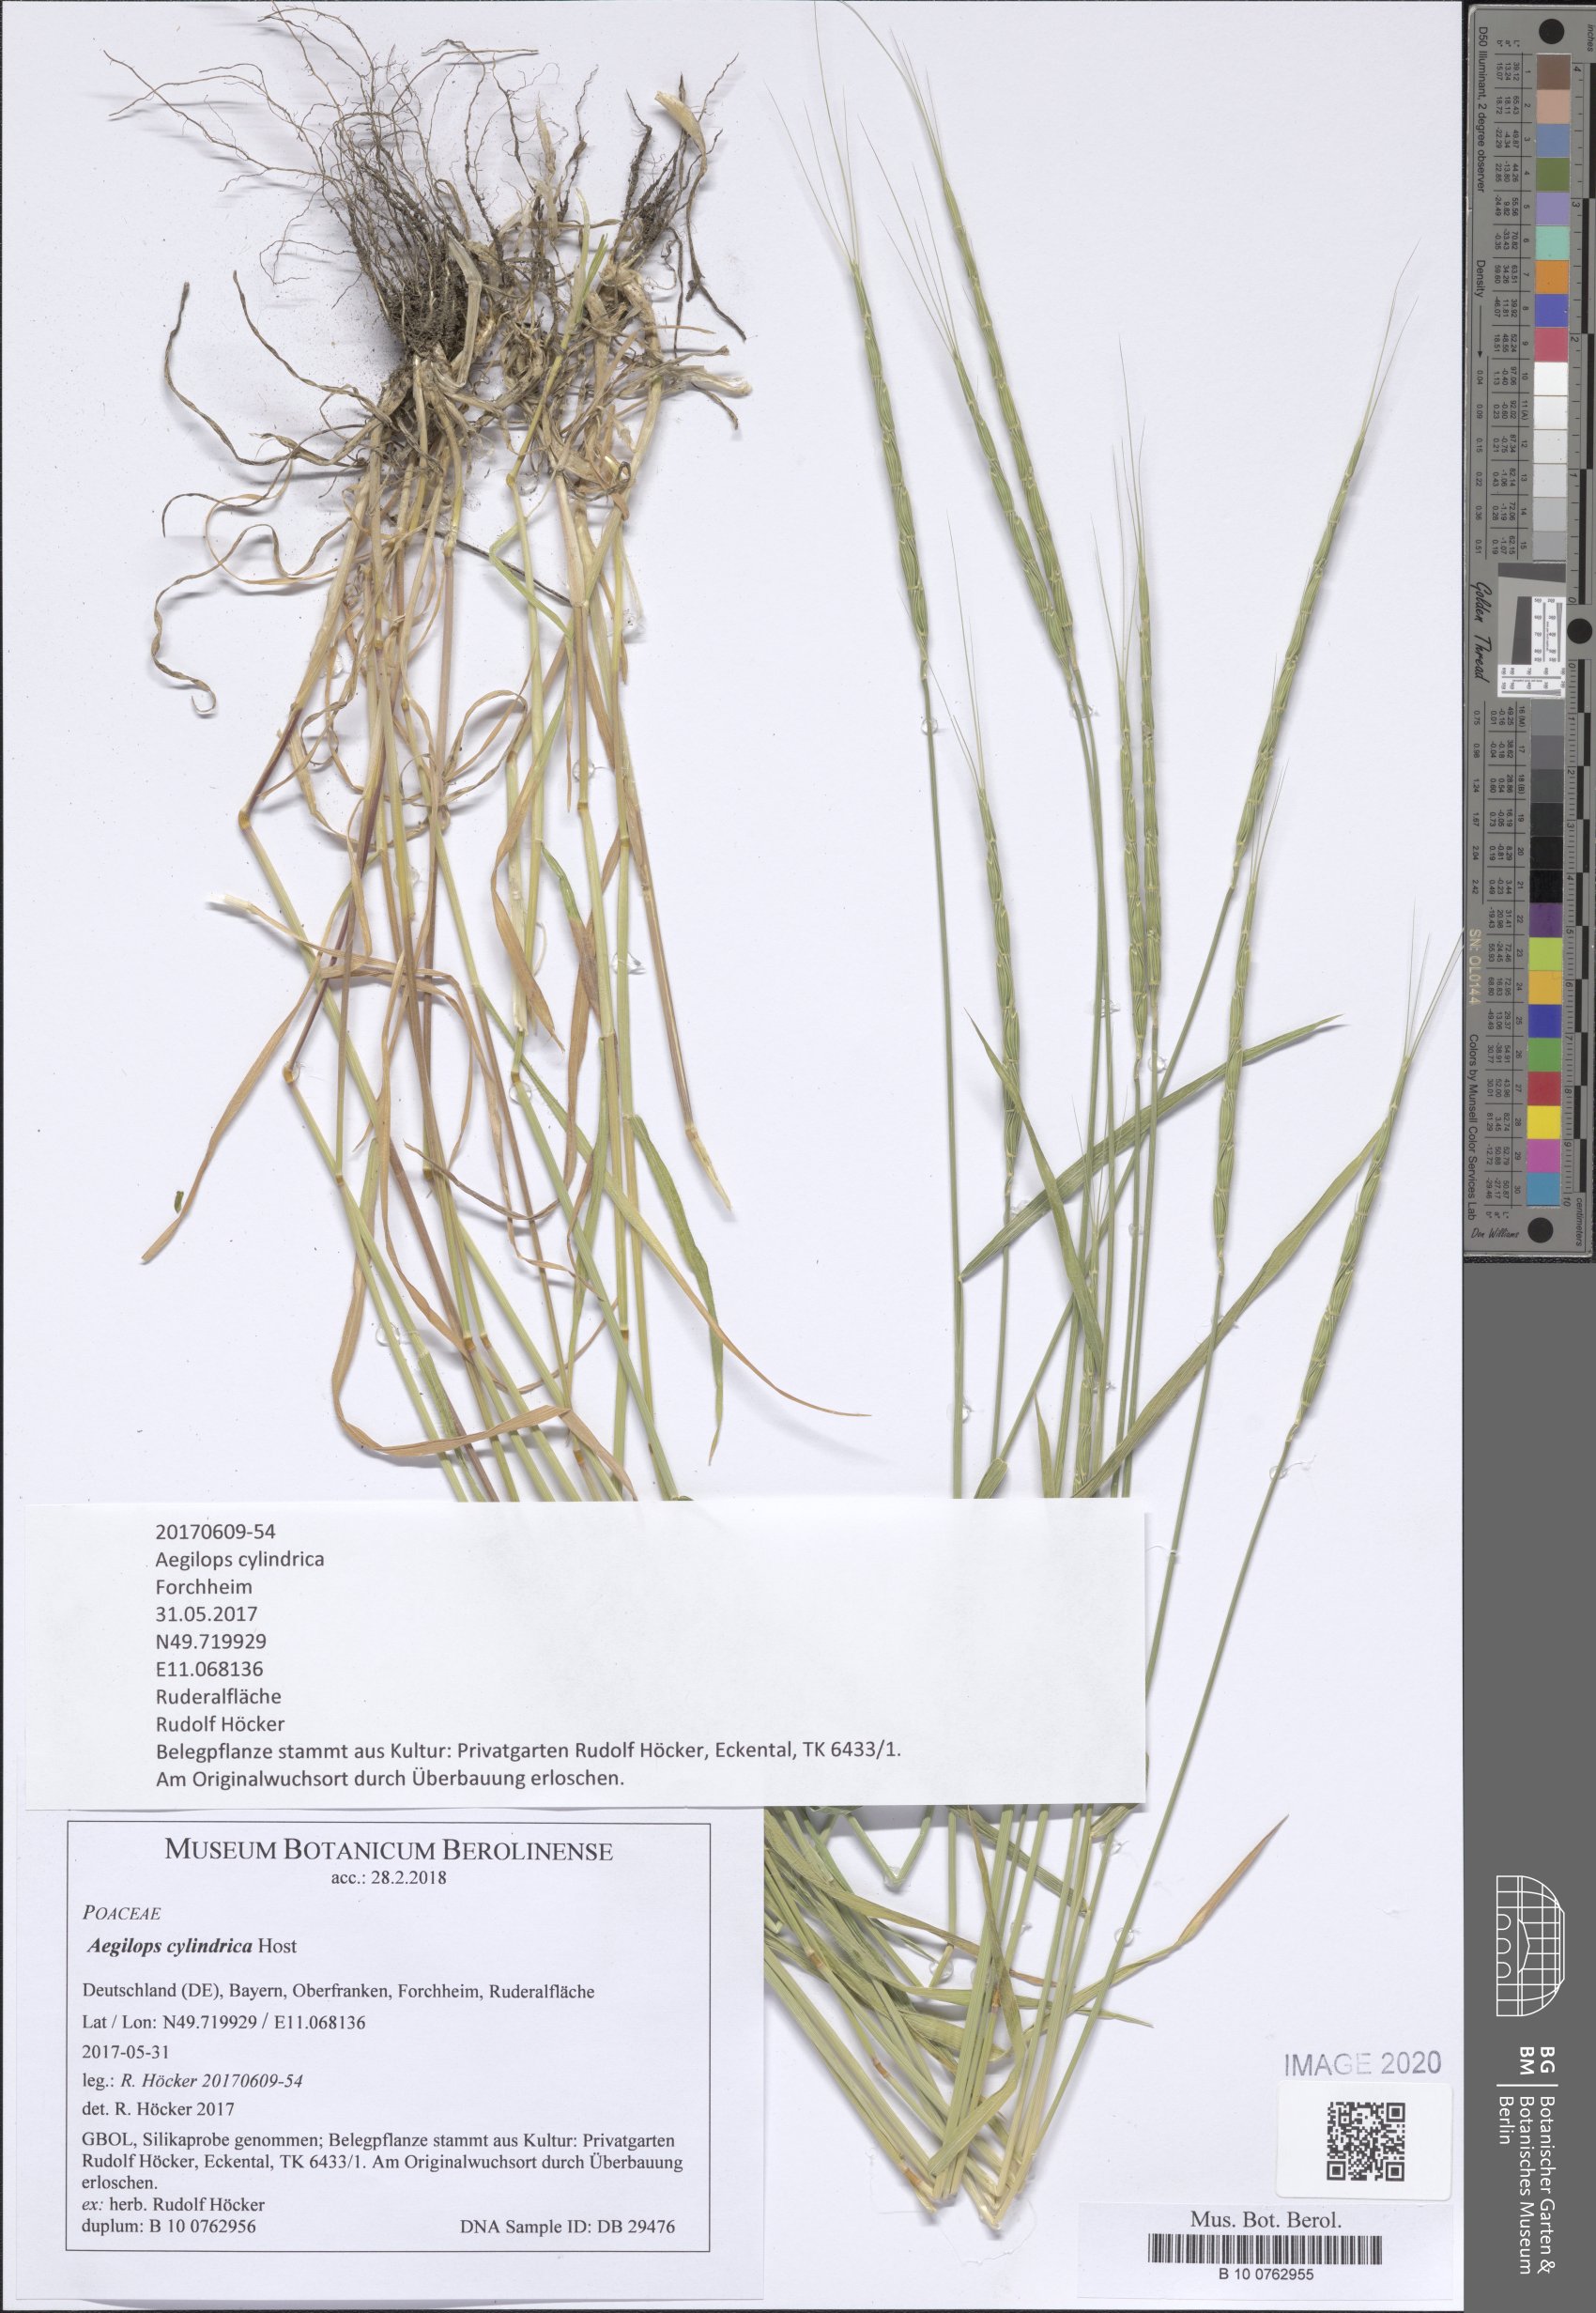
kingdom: Plantae
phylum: Tracheophyta
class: Liliopsida
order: Poales
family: Poaceae
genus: Aegilops
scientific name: Aegilops cylindrica
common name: Jointed goatgrass
